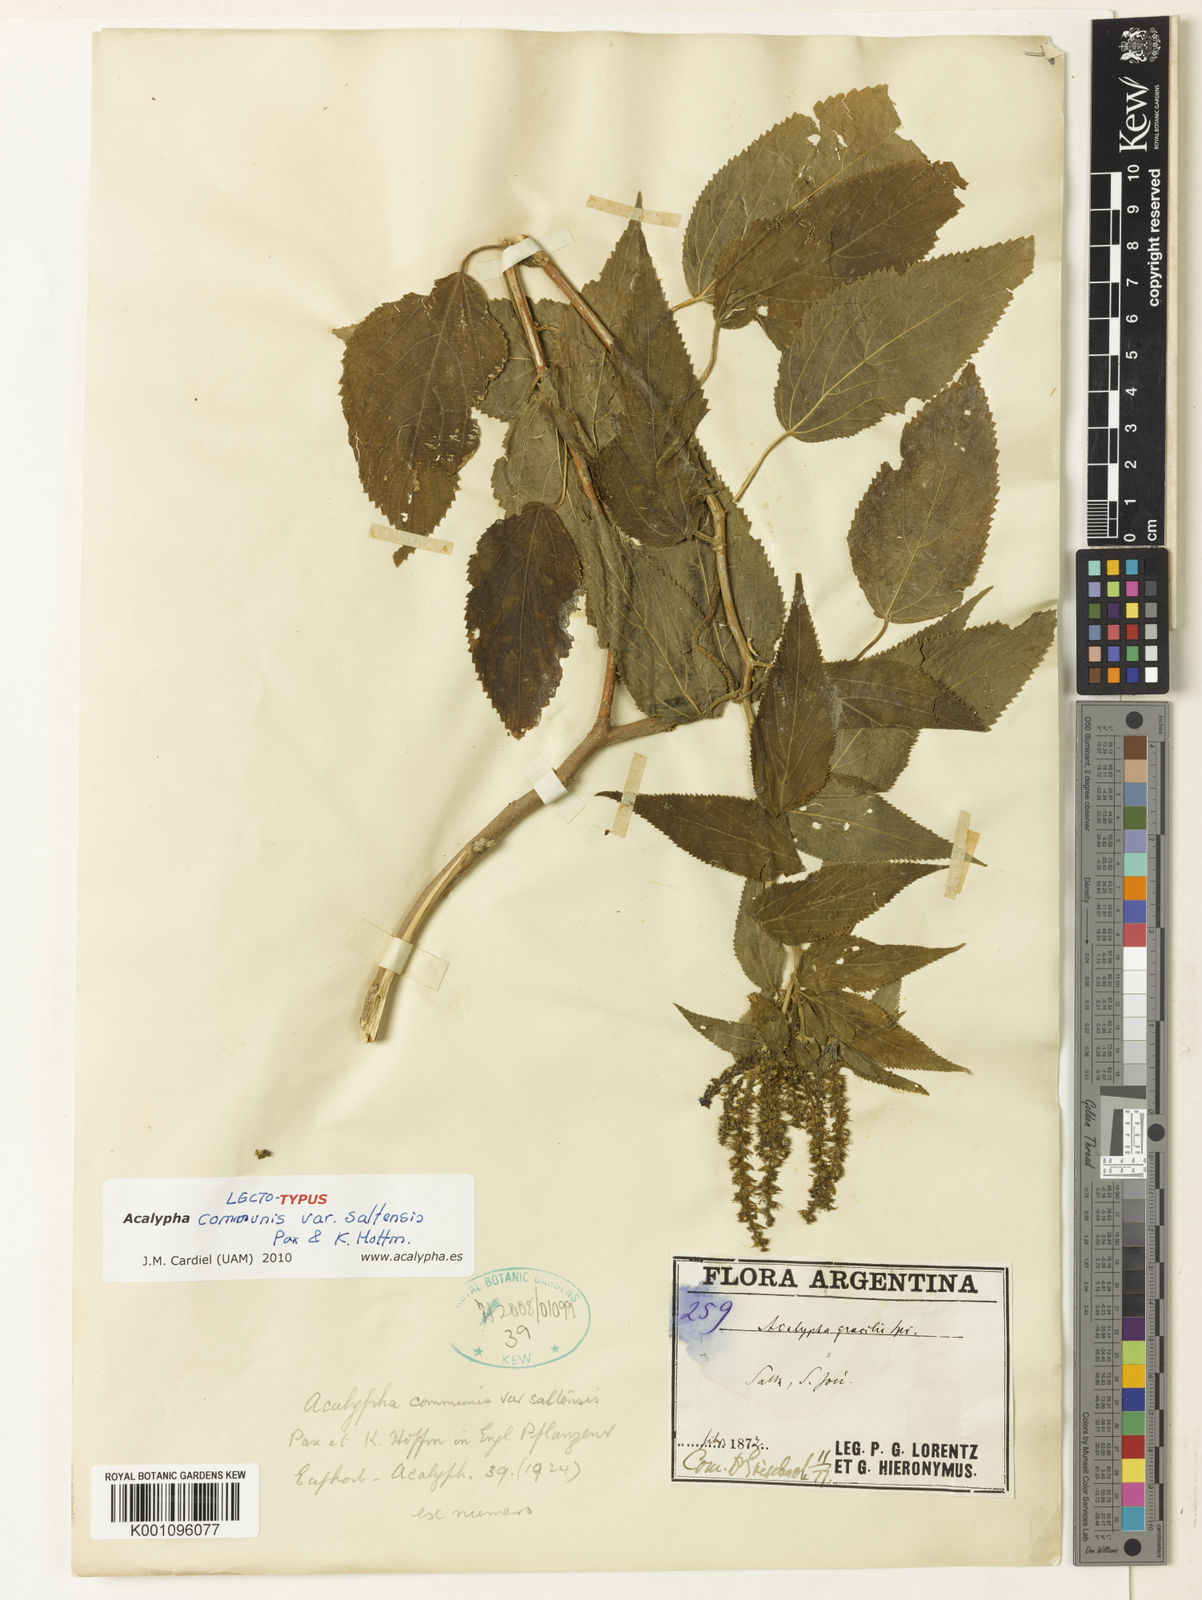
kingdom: Plantae
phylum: Tracheophyta
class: Magnoliopsida
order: Malpighiales
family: Euphorbiaceae
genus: Acalypha
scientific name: Acalypha
